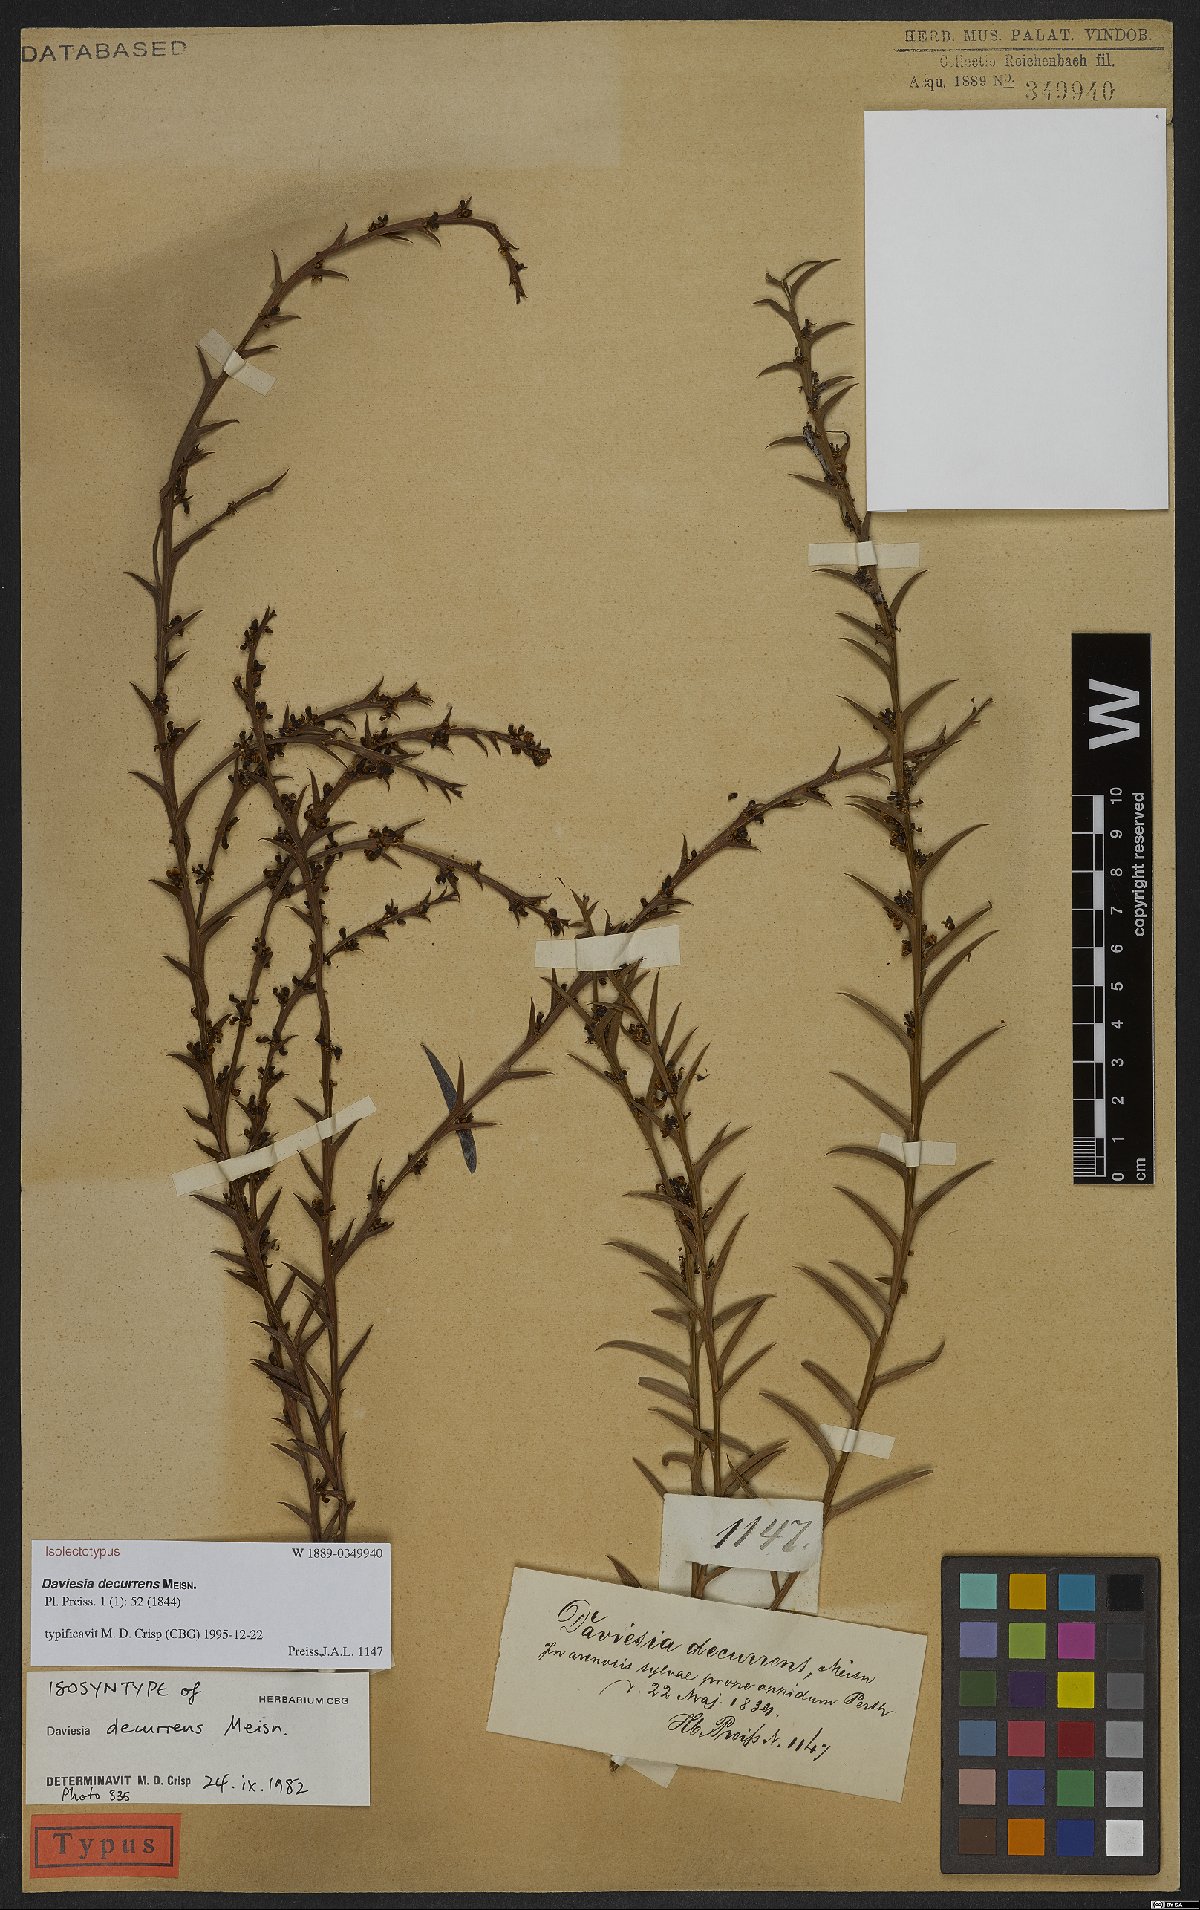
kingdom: Plantae
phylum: Tracheophyta
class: Magnoliopsida
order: Fabales
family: Fabaceae
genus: Daviesia
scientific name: Daviesia decurrens
